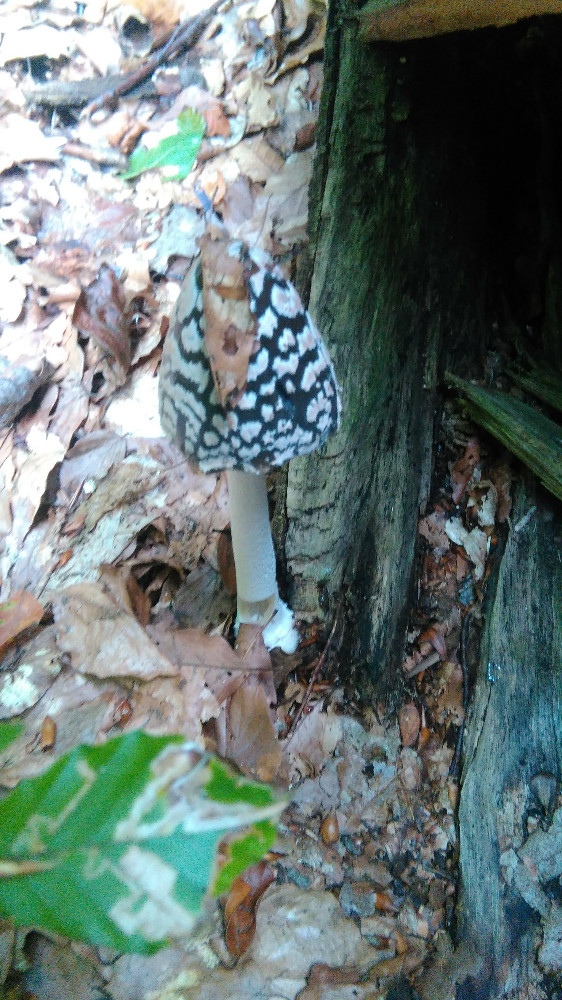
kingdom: Fungi
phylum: Basidiomycota
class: Agaricomycetes
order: Agaricales
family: Psathyrellaceae
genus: Coprinopsis
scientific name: Coprinopsis picacea
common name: skade-blækhat
